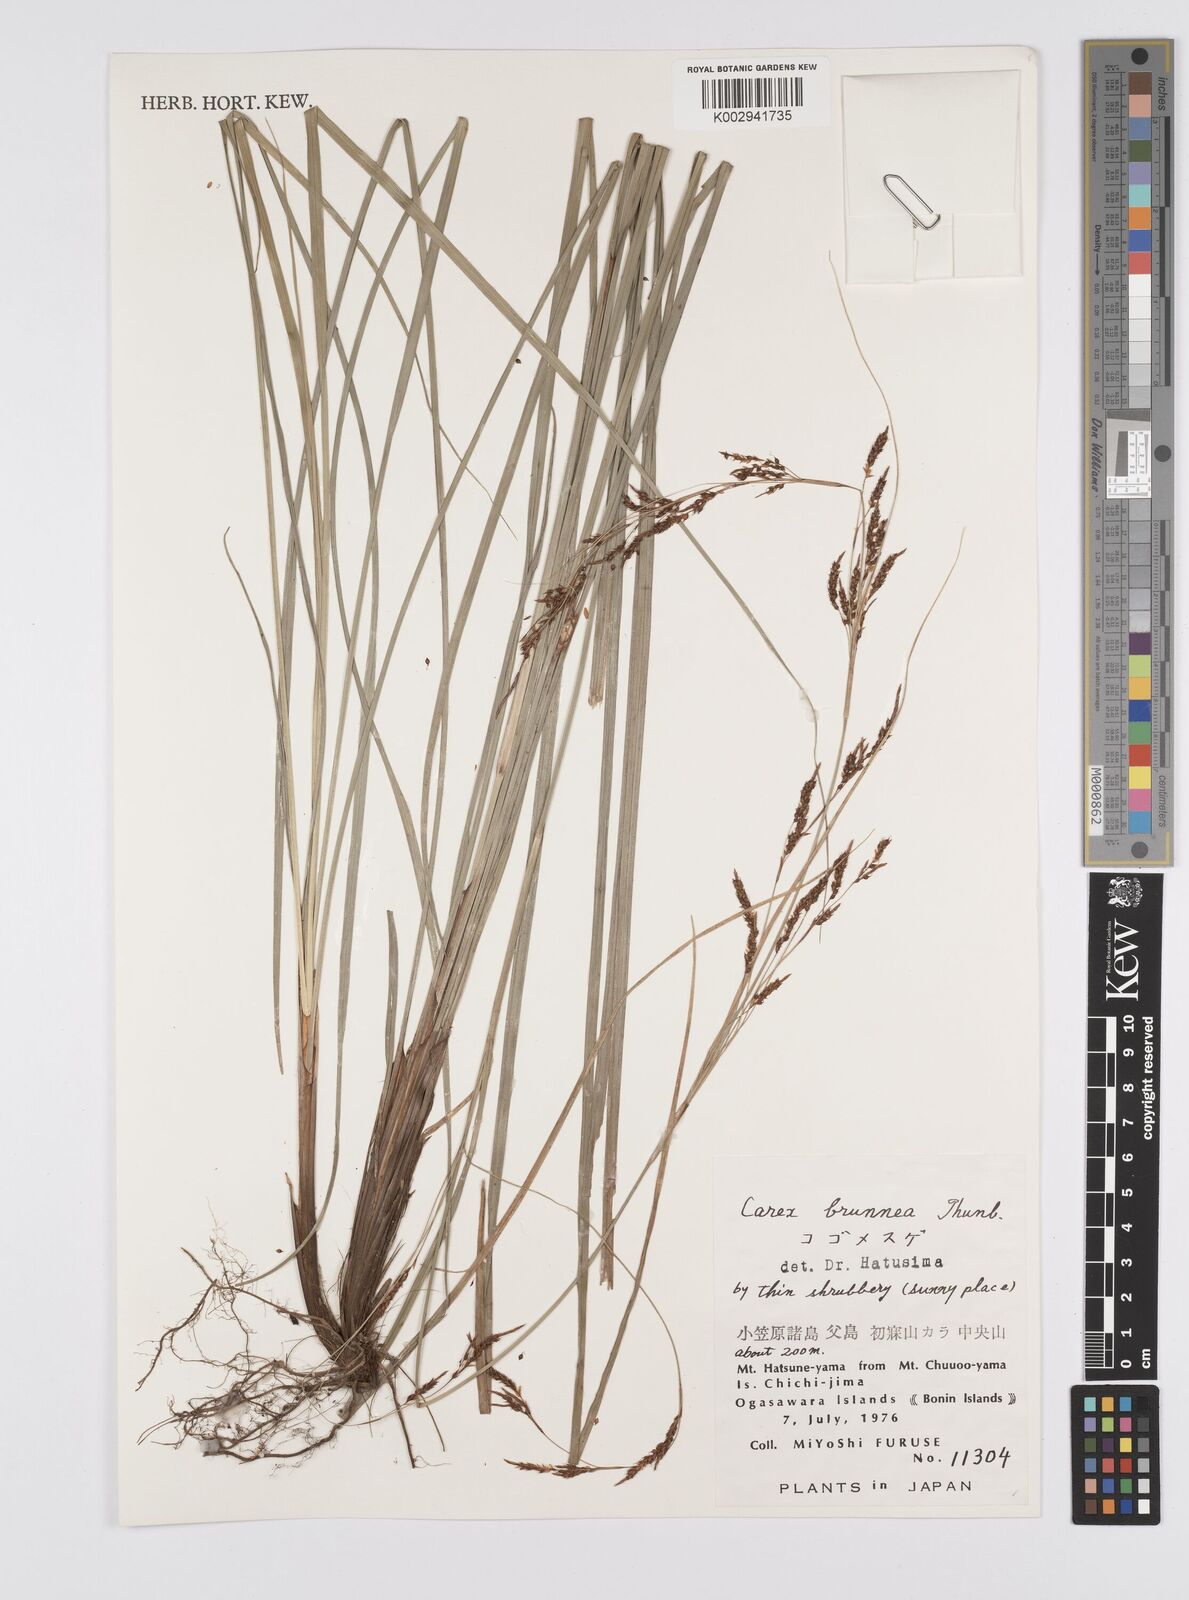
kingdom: Plantae
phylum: Tracheophyta
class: Liliopsida
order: Poales
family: Cyperaceae
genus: Carex
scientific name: Carex brunnea
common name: Greater brown sedge
